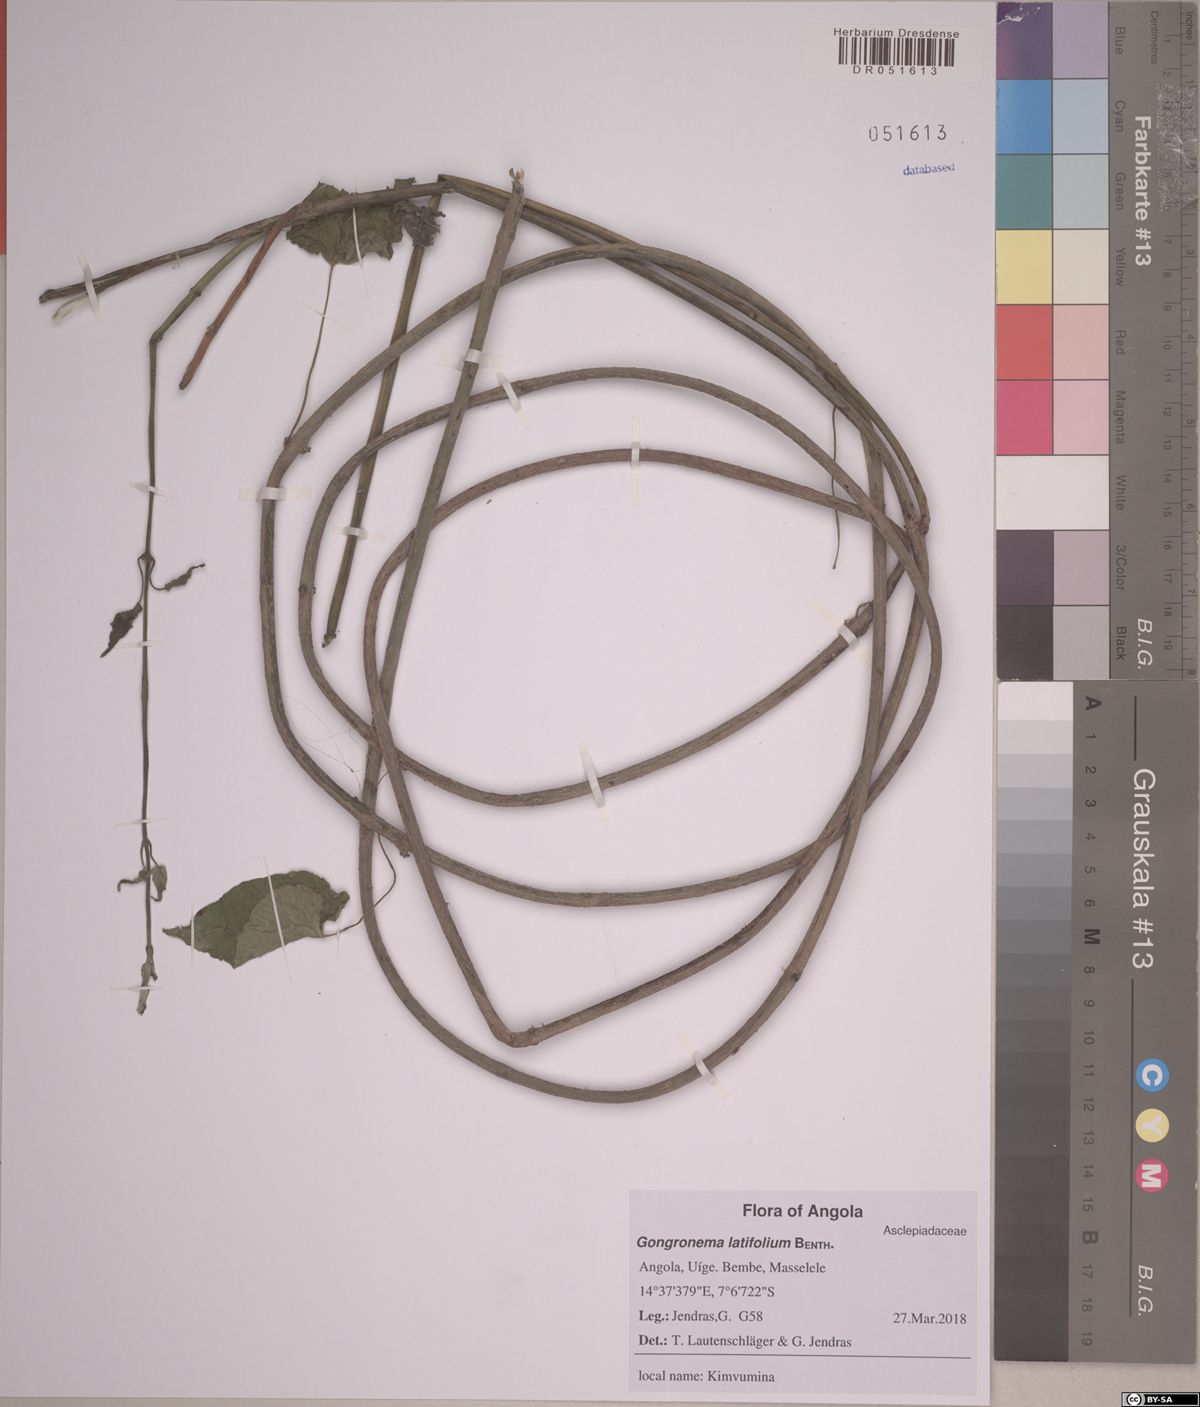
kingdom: Plantae
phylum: Tracheophyta
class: Magnoliopsida
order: Gentianales
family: Apocynaceae
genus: Gongronemopsis
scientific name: Gongronemopsis latifolia
